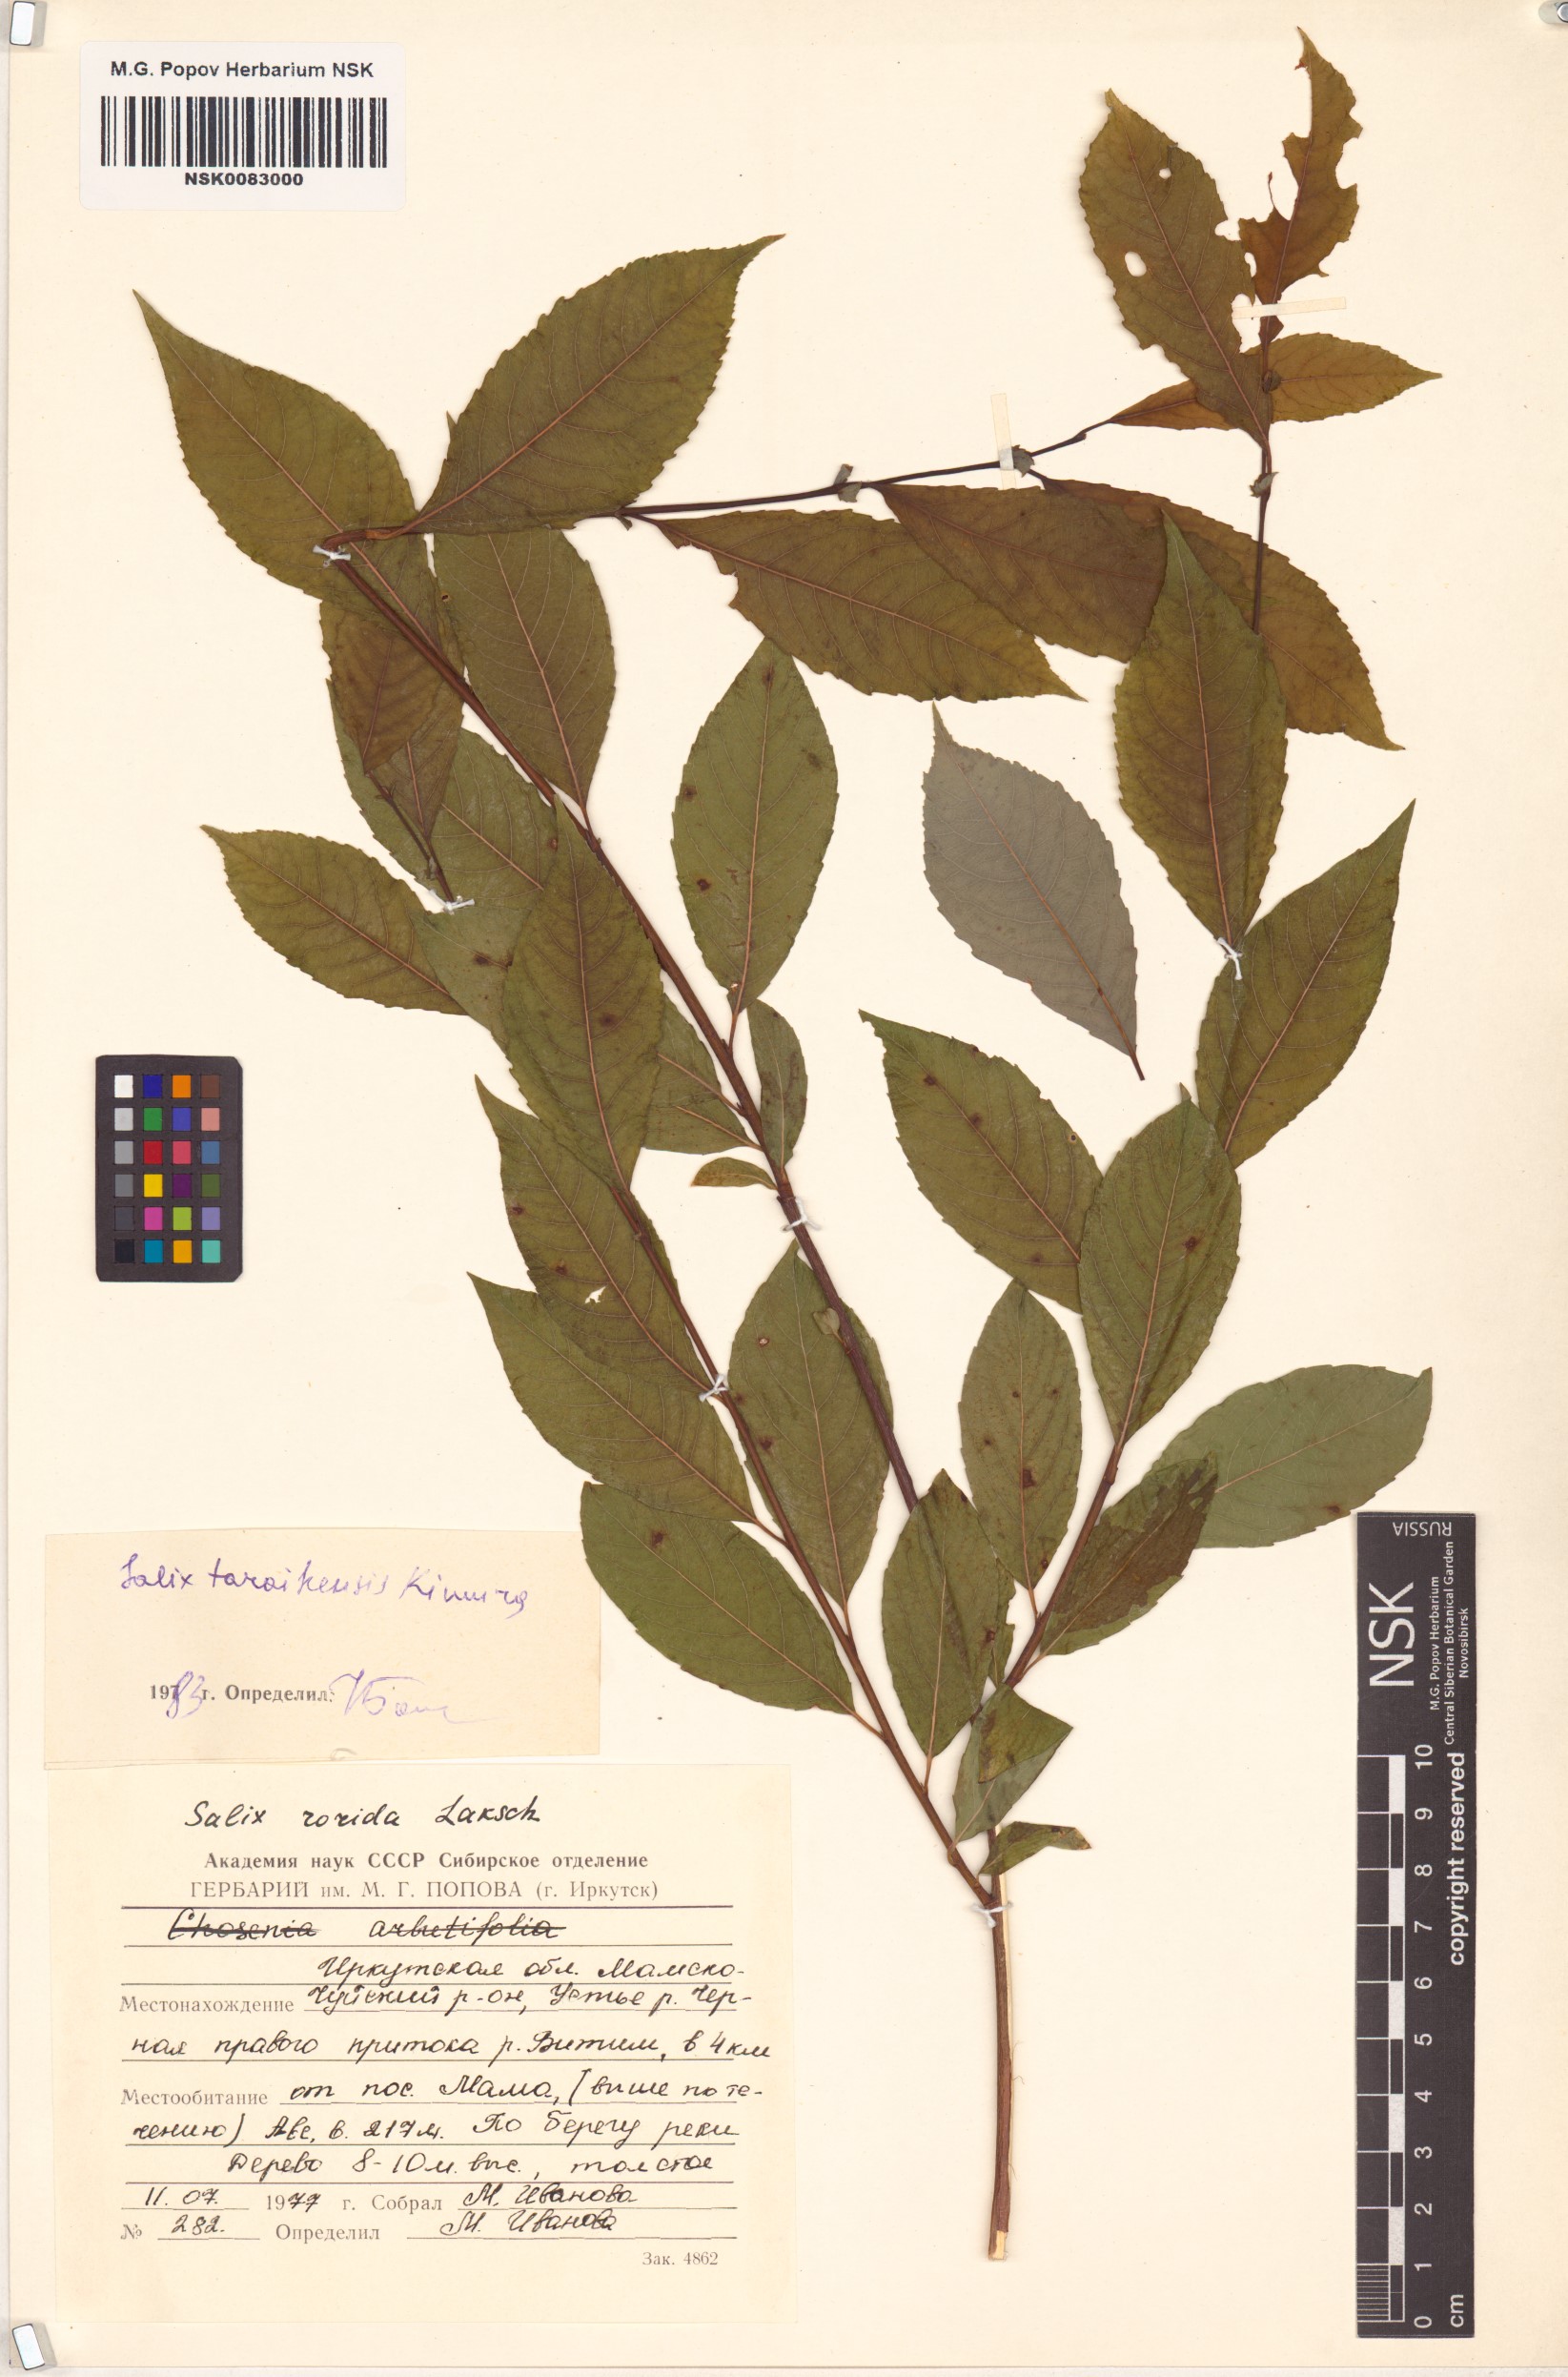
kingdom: Plantae
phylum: Tracheophyta
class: Magnoliopsida
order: Malpighiales
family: Salicaceae
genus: Salix
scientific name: Salix taraikensis
